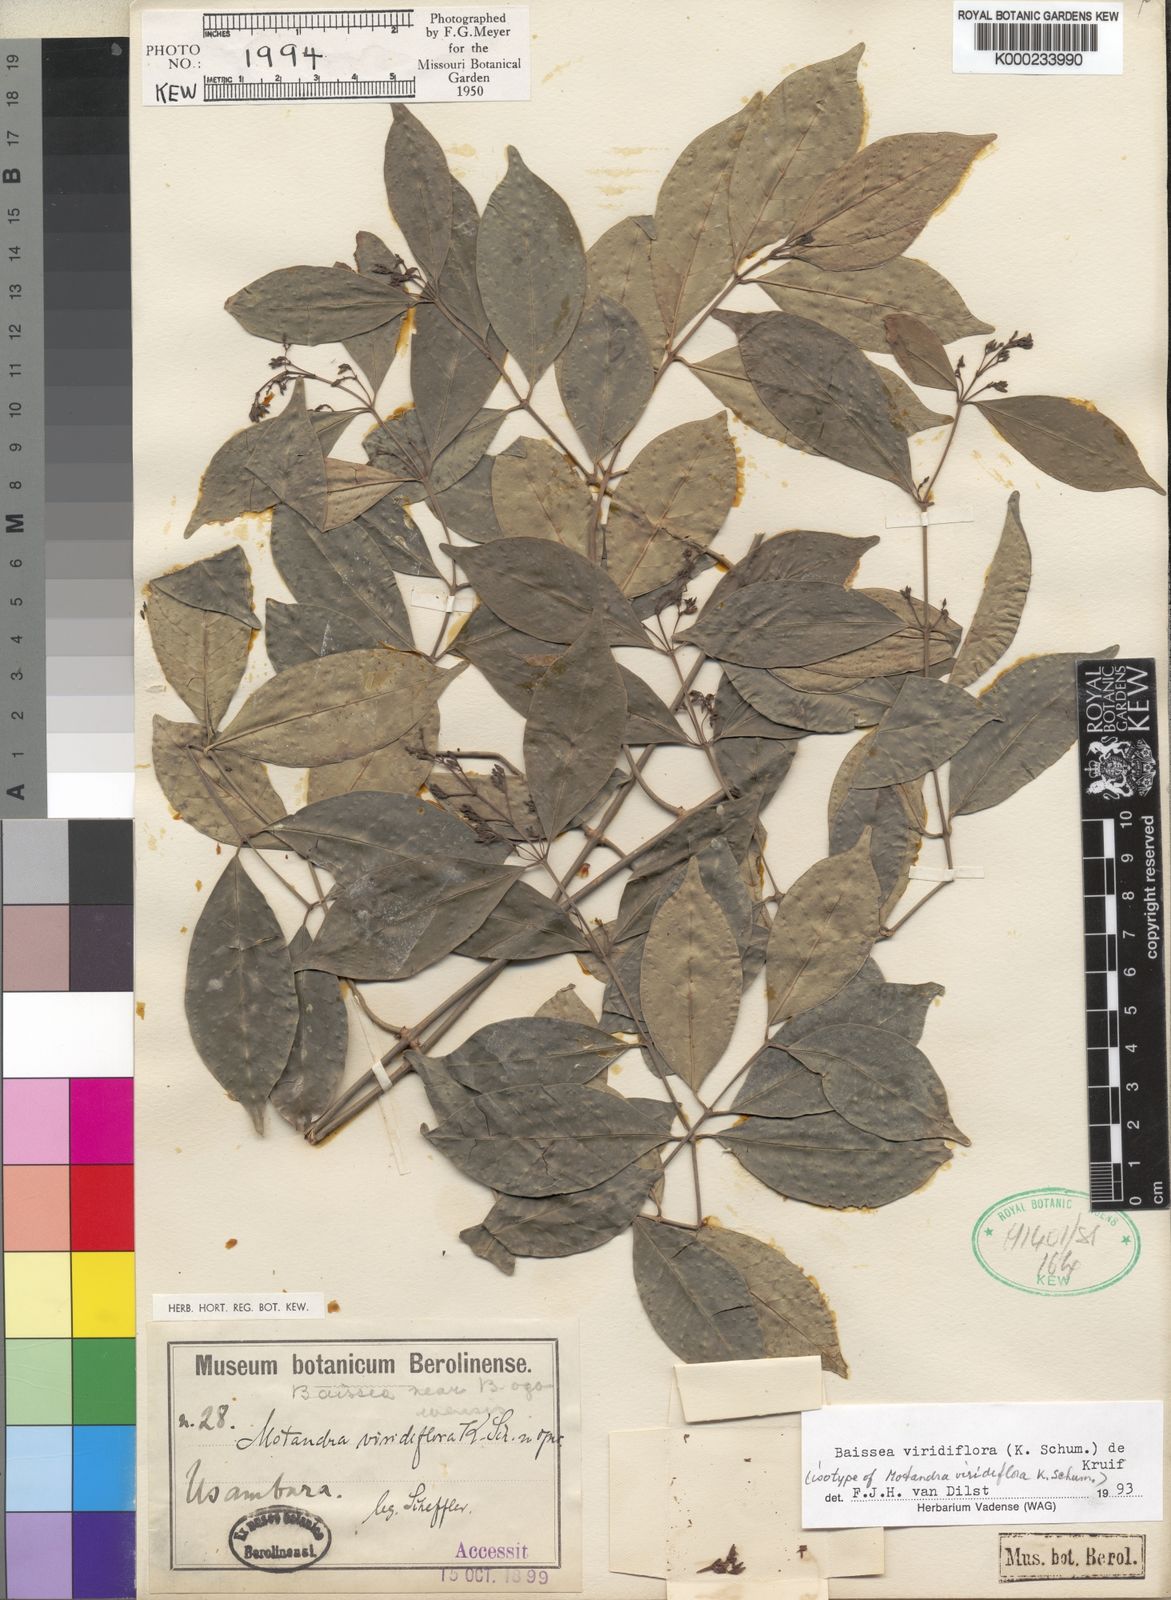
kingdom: Plantae
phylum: Tracheophyta
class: Magnoliopsida
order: Gentianales
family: Apocynaceae
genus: Baissea
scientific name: Baissea viridiflora
